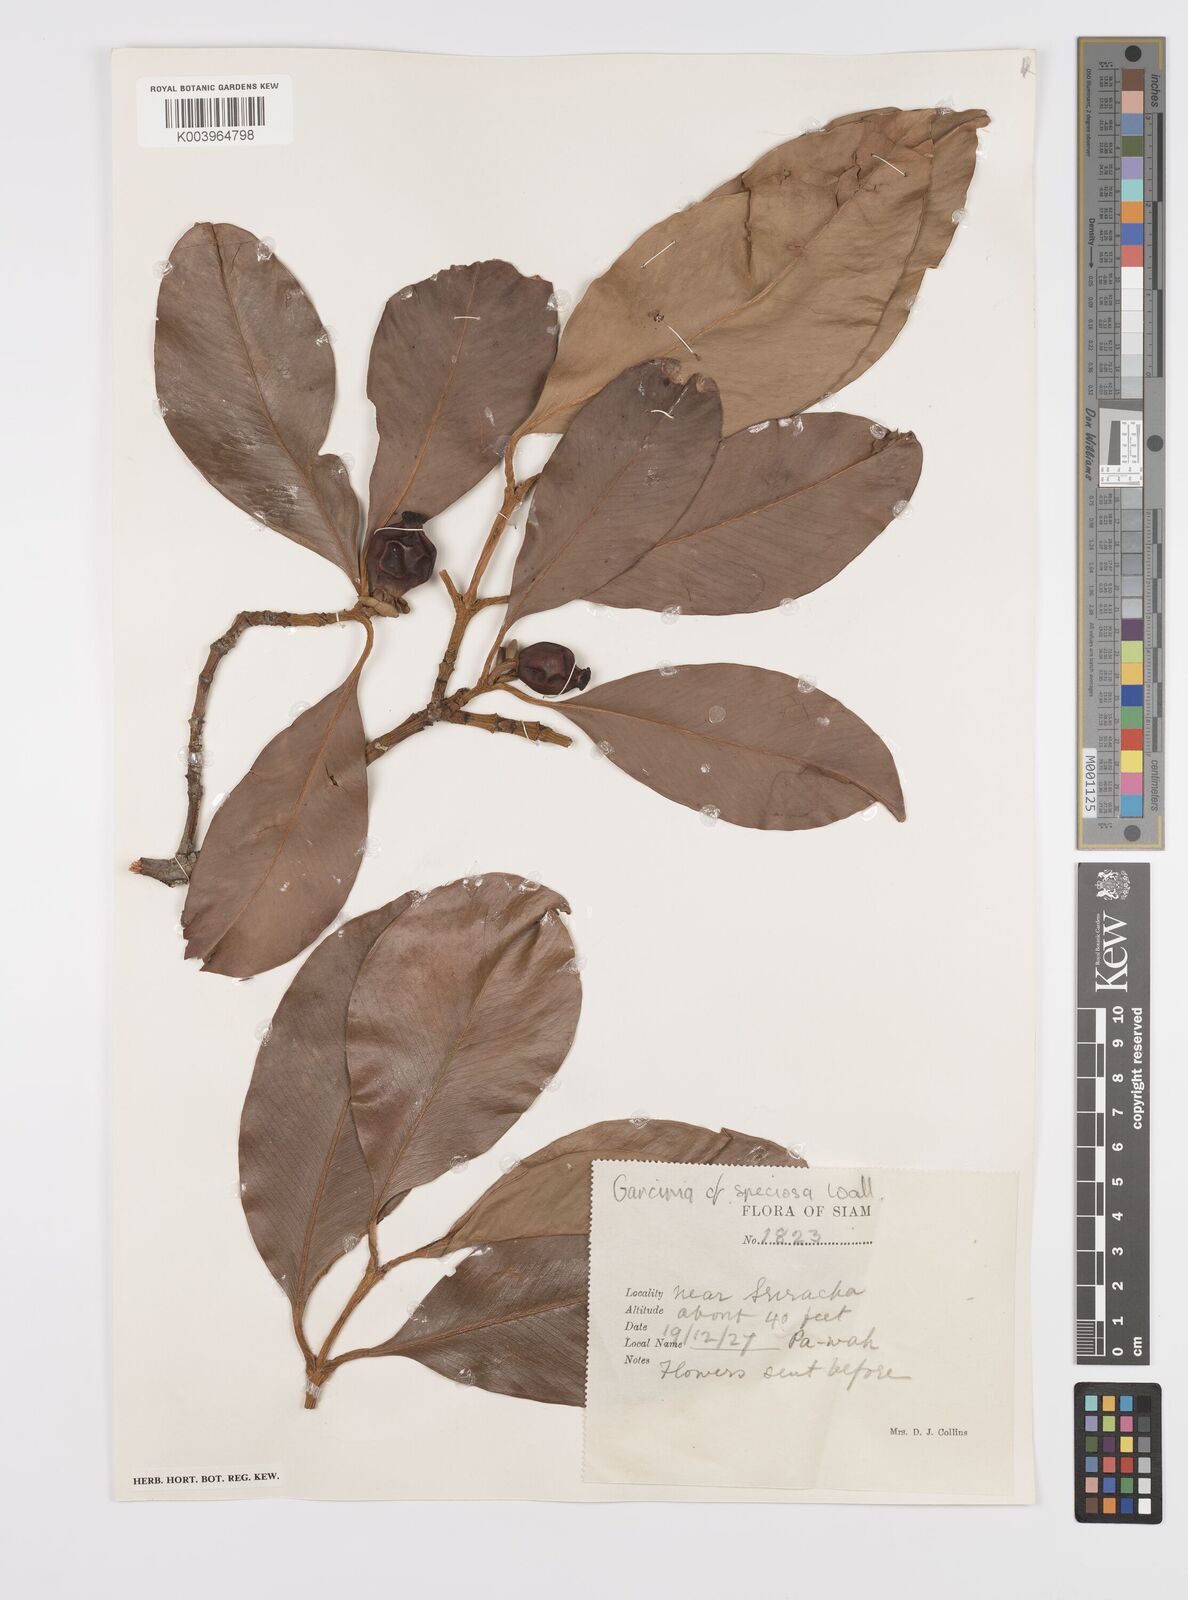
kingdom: Plantae
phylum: Tracheophyta
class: Magnoliopsida
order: Malpighiales
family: Clusiaceae
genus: Garcinia
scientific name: Garcinia celebica
